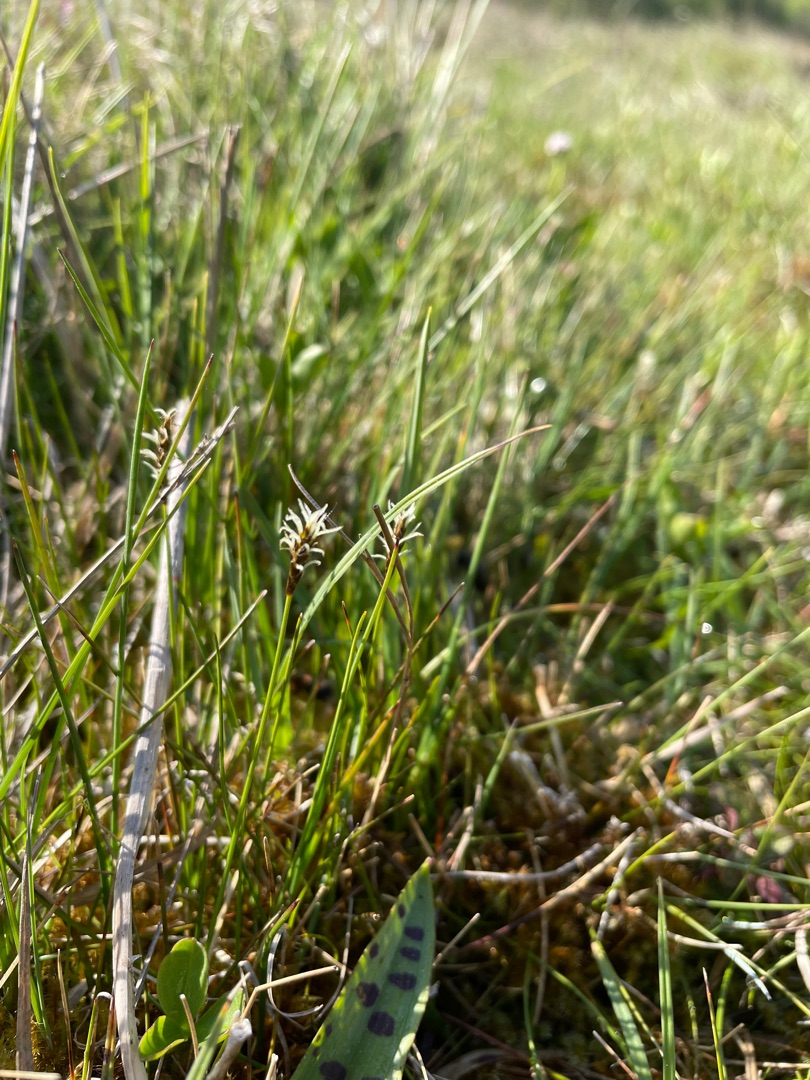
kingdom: Plantae
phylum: Tracheophyta
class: Liliopsida
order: Poales
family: Cyperaceae
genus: Carex
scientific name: Carex dioica
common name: Tvebo star
